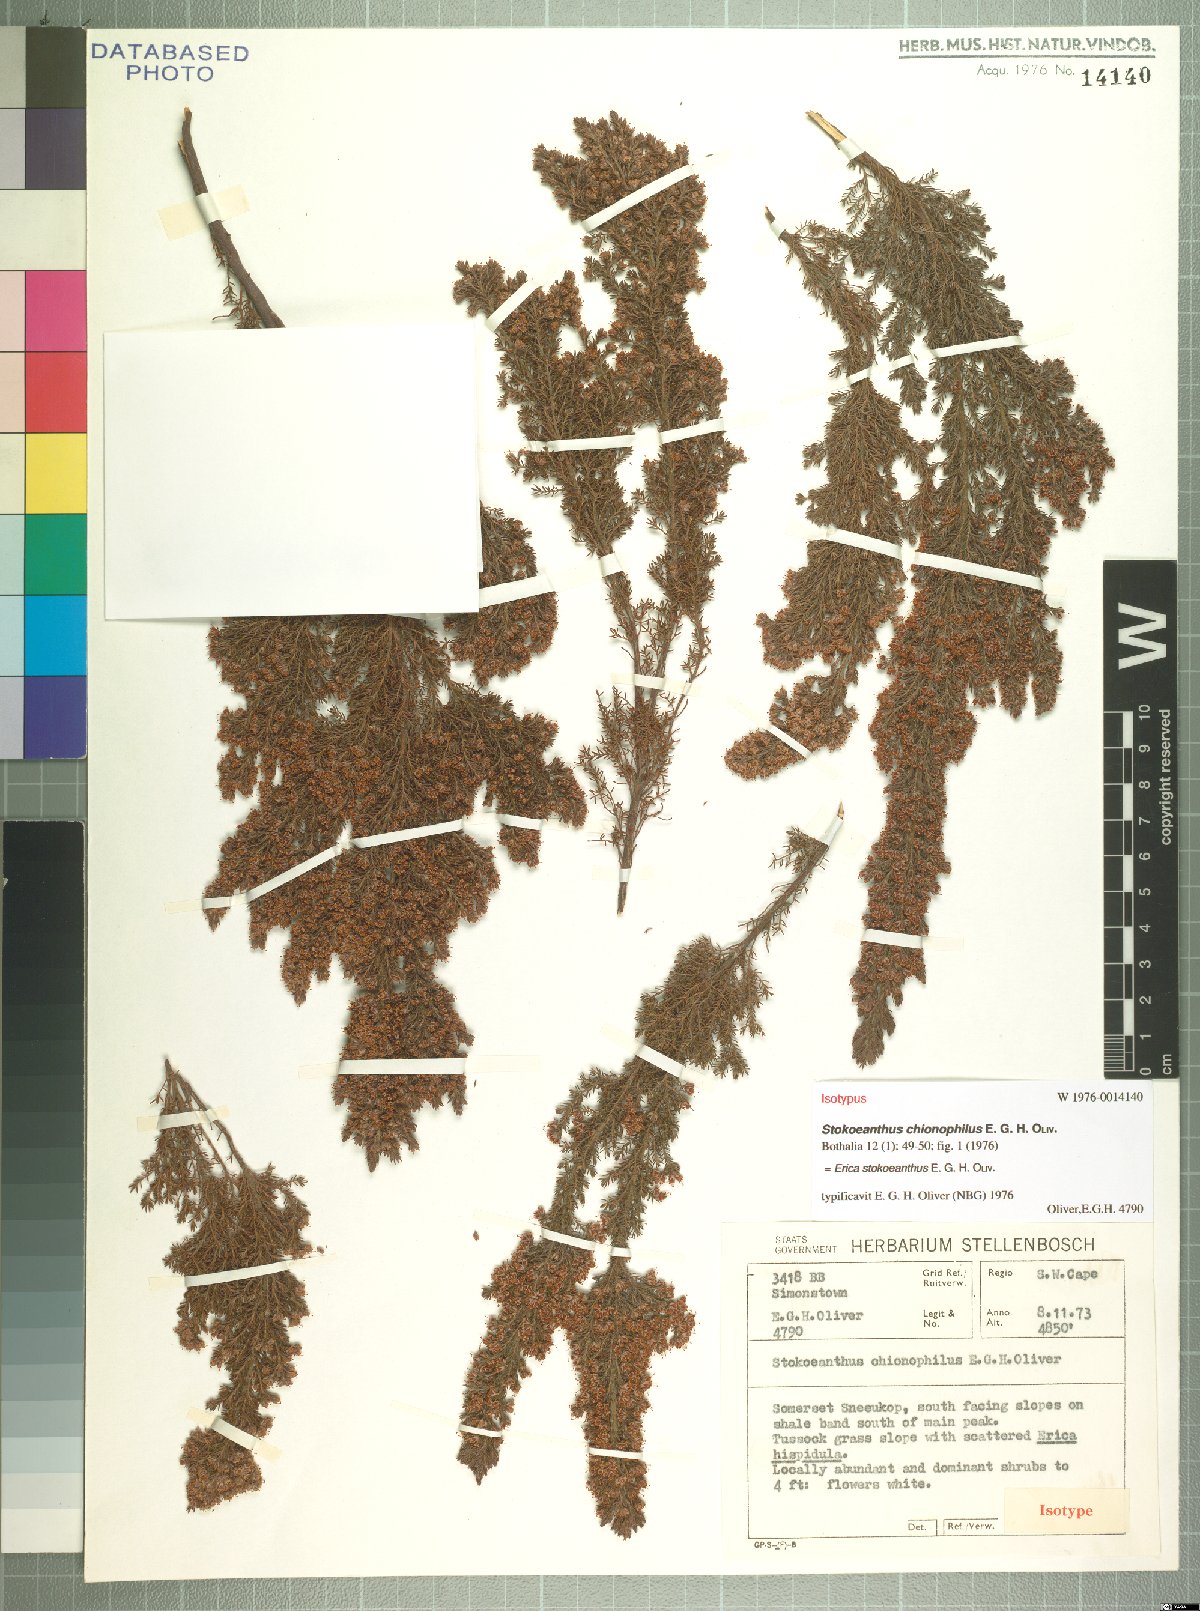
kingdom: Plantae
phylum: Tracheophyta
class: Magnoliopsida
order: Ericales
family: Ericaceae
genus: Erica
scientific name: Erica stokoeanthus
